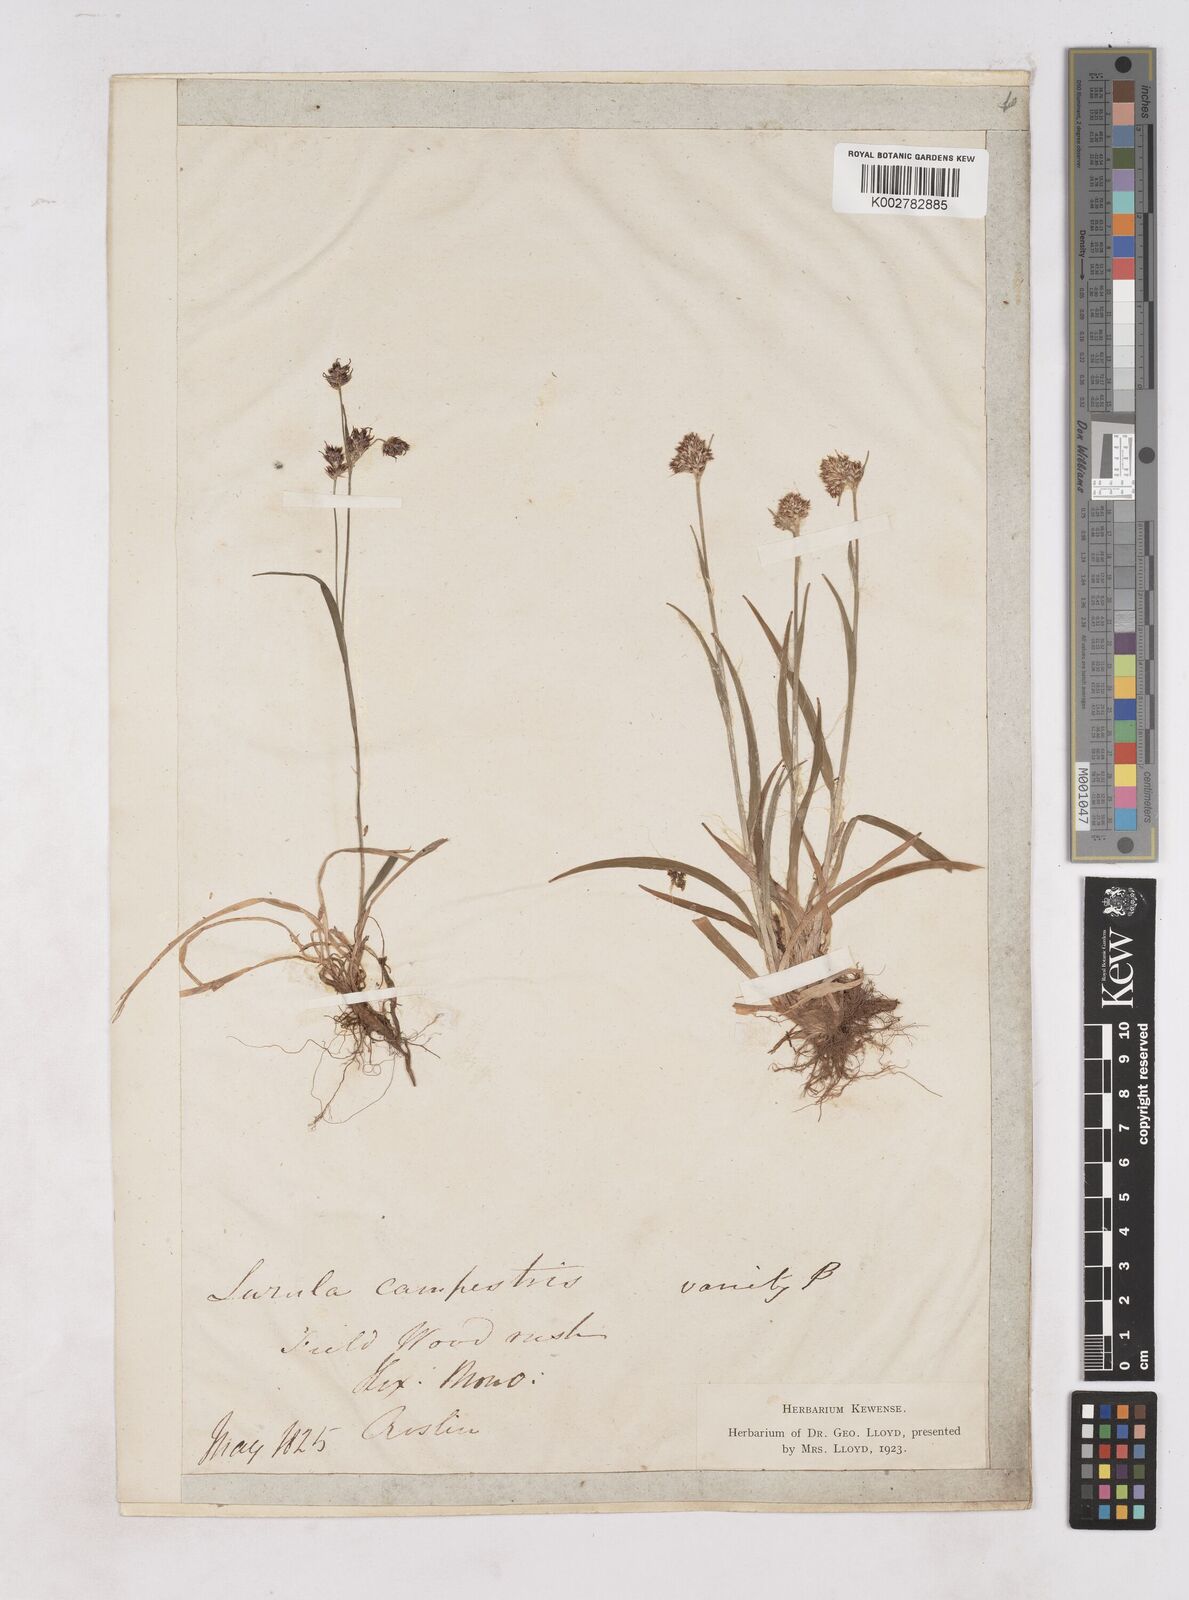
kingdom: Plantae
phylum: Tracheophyta
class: Liliopsida
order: Poales
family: Juncaceae
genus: Luzula
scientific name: Luzula campestris
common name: Field wood-rush
